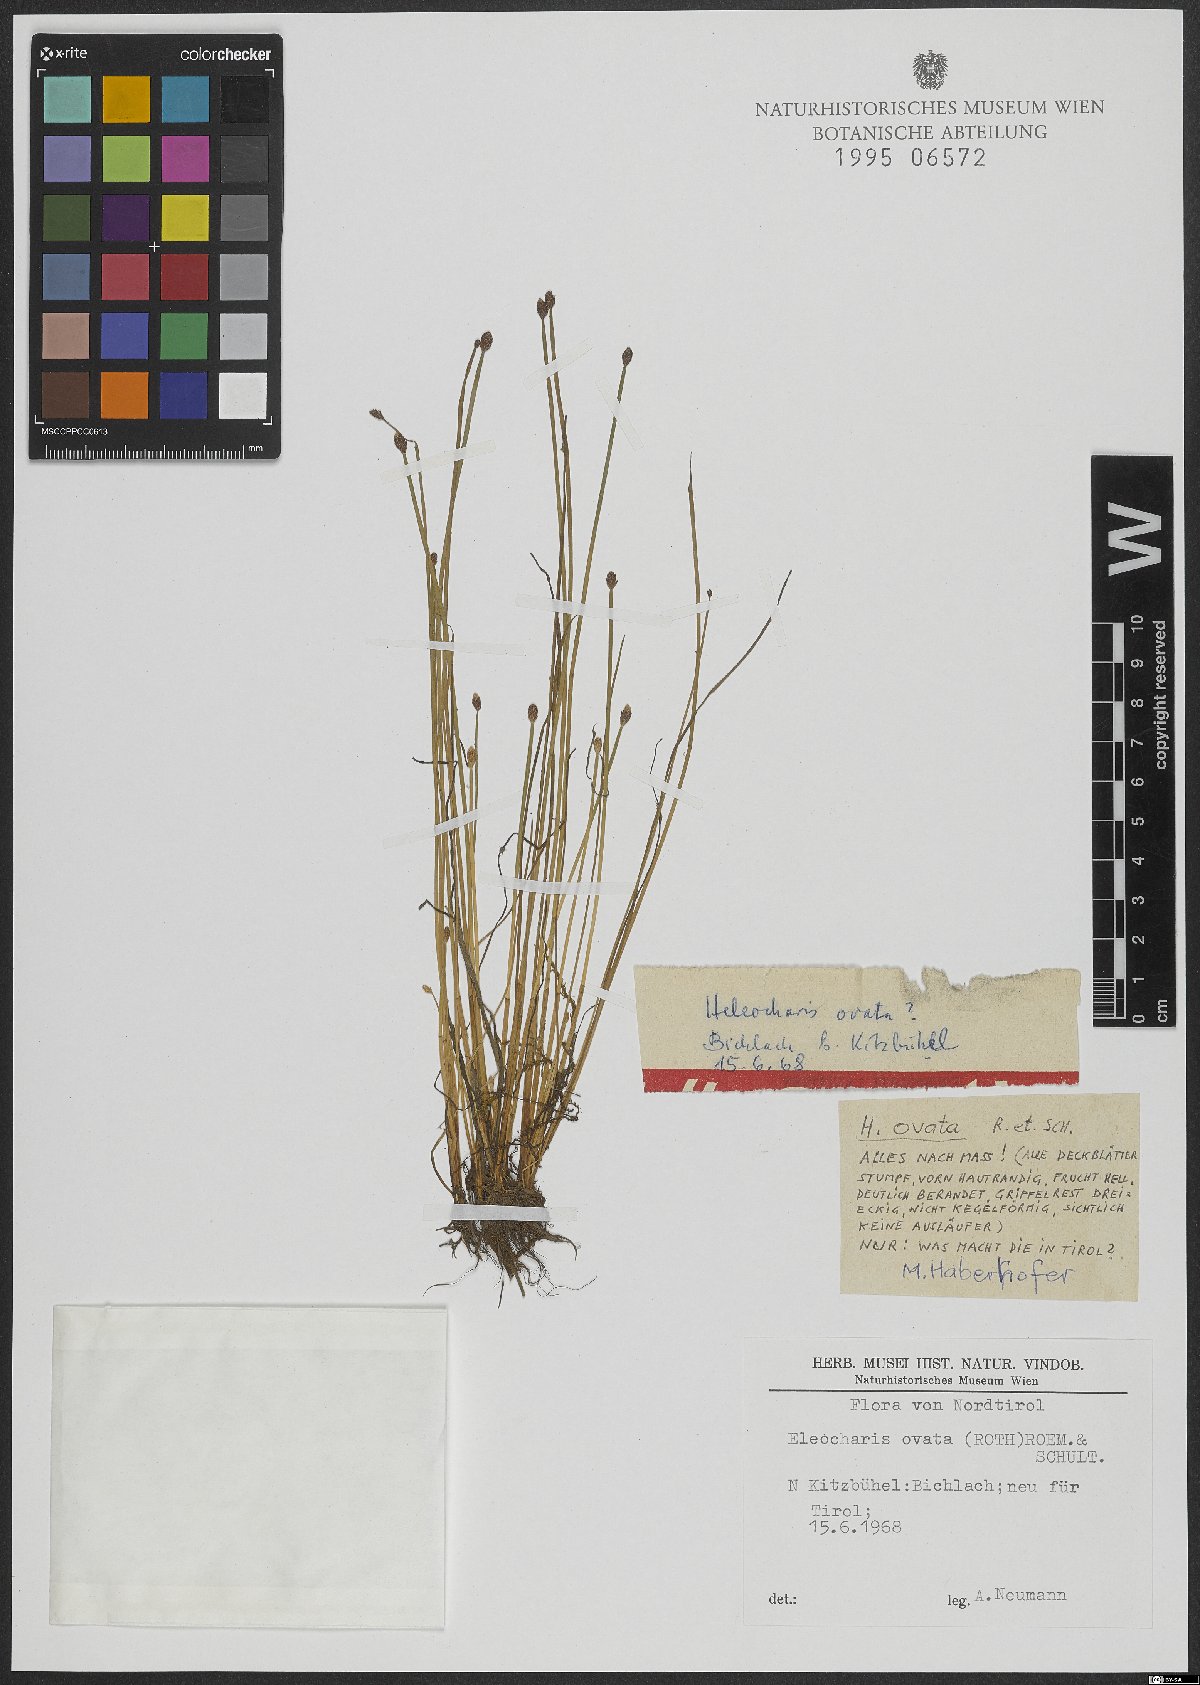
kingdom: Plantae
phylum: Tracheophyta
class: Liliopsida
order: Poales
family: Cyperaceae
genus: Eleocharis
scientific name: Eleocharis ovata
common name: Oval spike-rush
